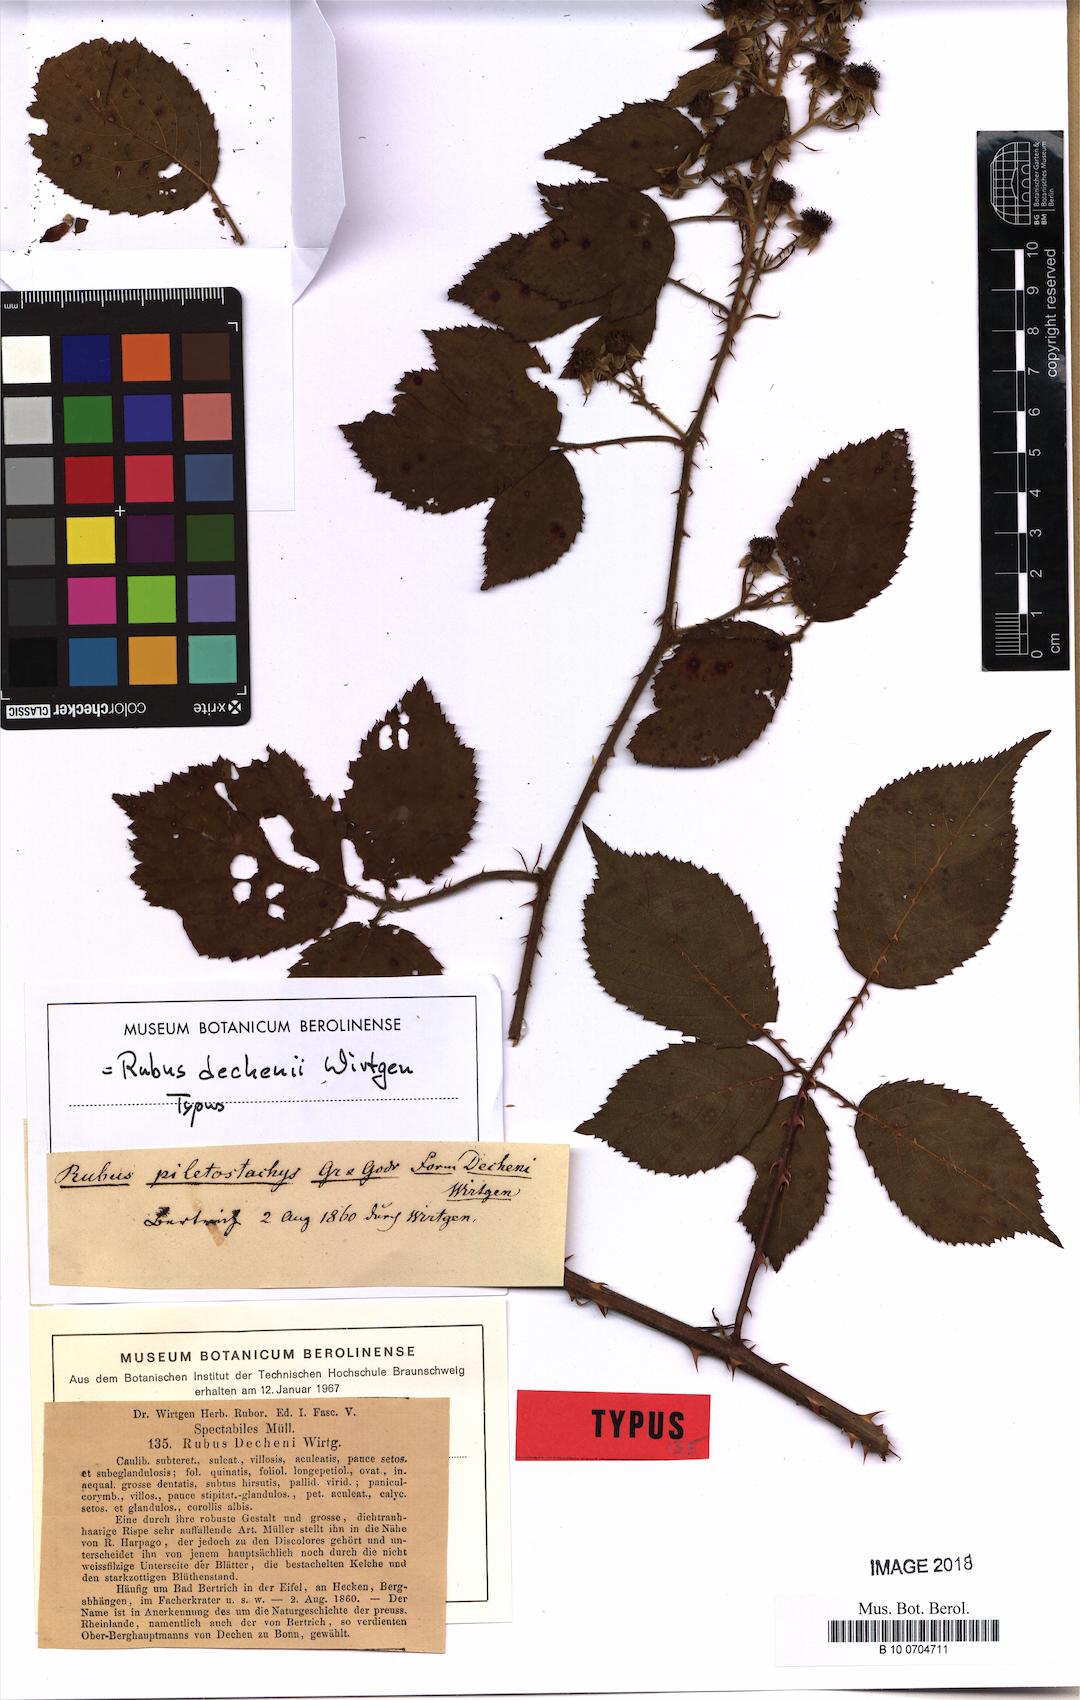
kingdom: Plantae
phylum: Tracheophyta
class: Magnoliopsida
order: Rosales
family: Rosaceae
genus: Rubus
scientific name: Rubus dechenii
